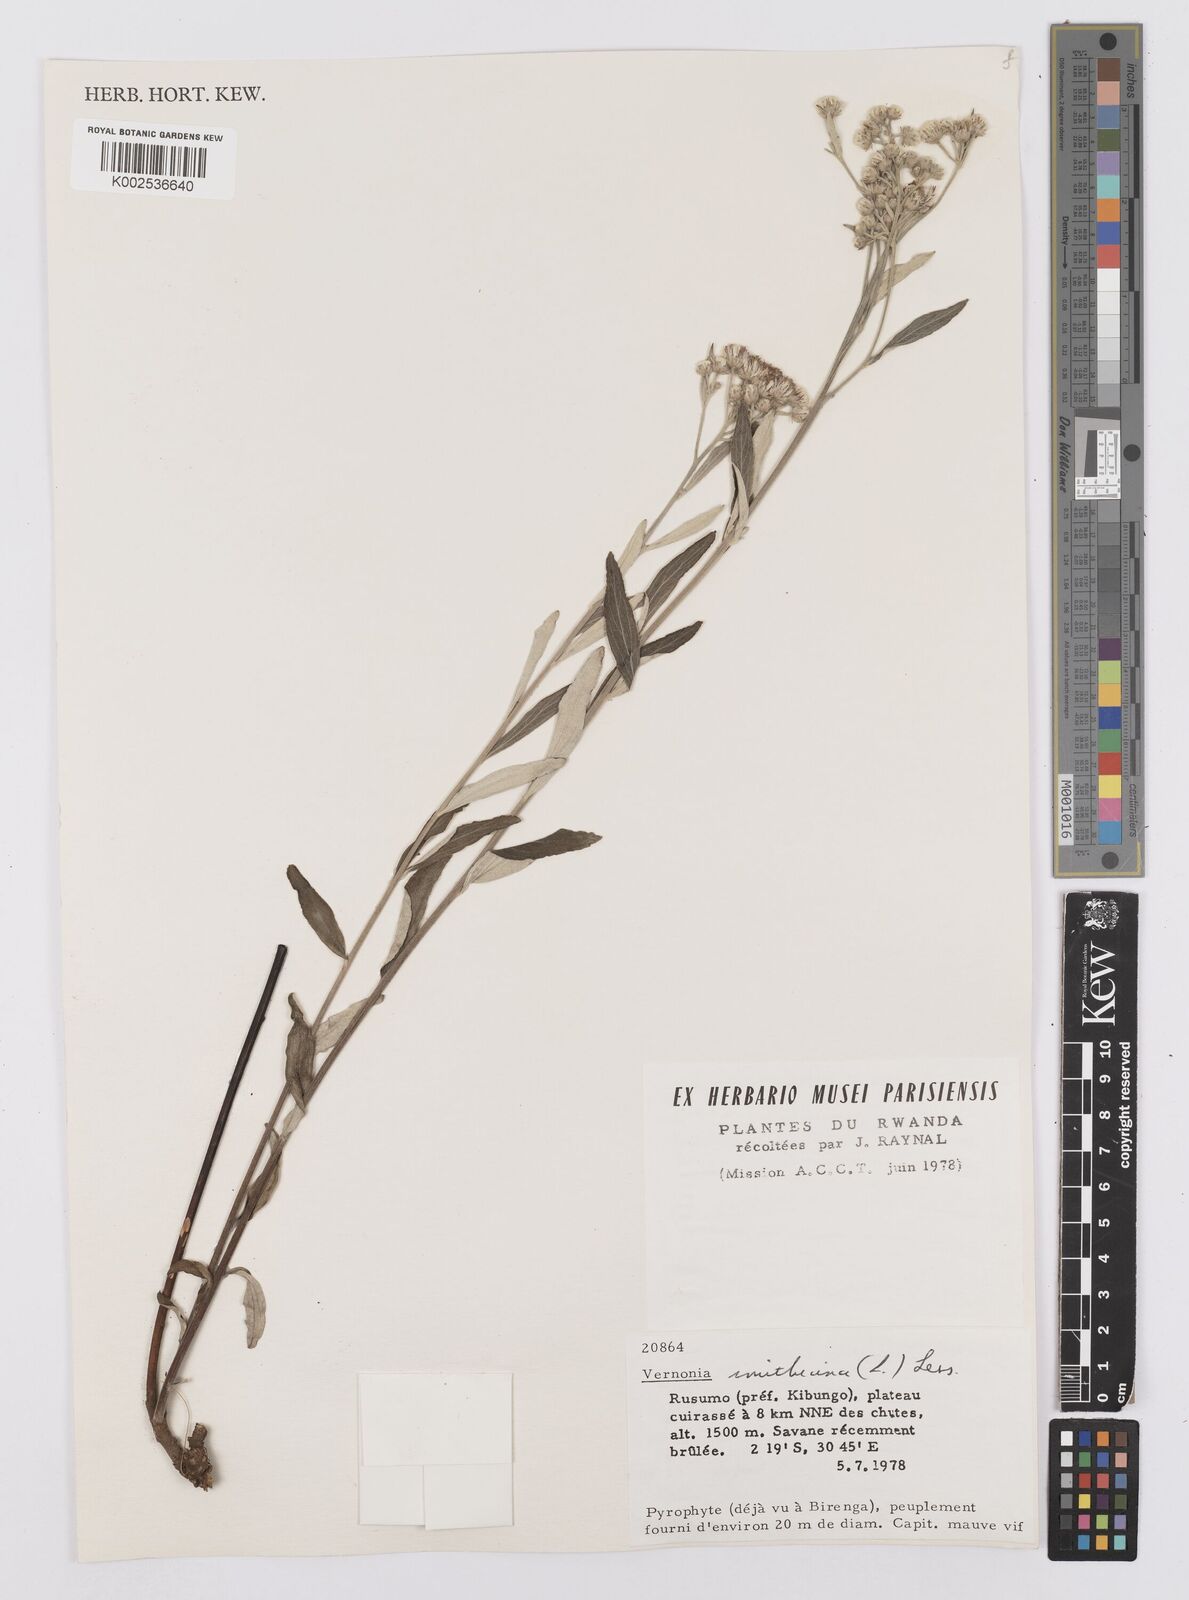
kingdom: Plantae
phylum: Tracheophyta
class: Magnoliopsida
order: Asterales
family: Asteraceae
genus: Hilliardiella
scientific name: Hilliardiella smithiana
